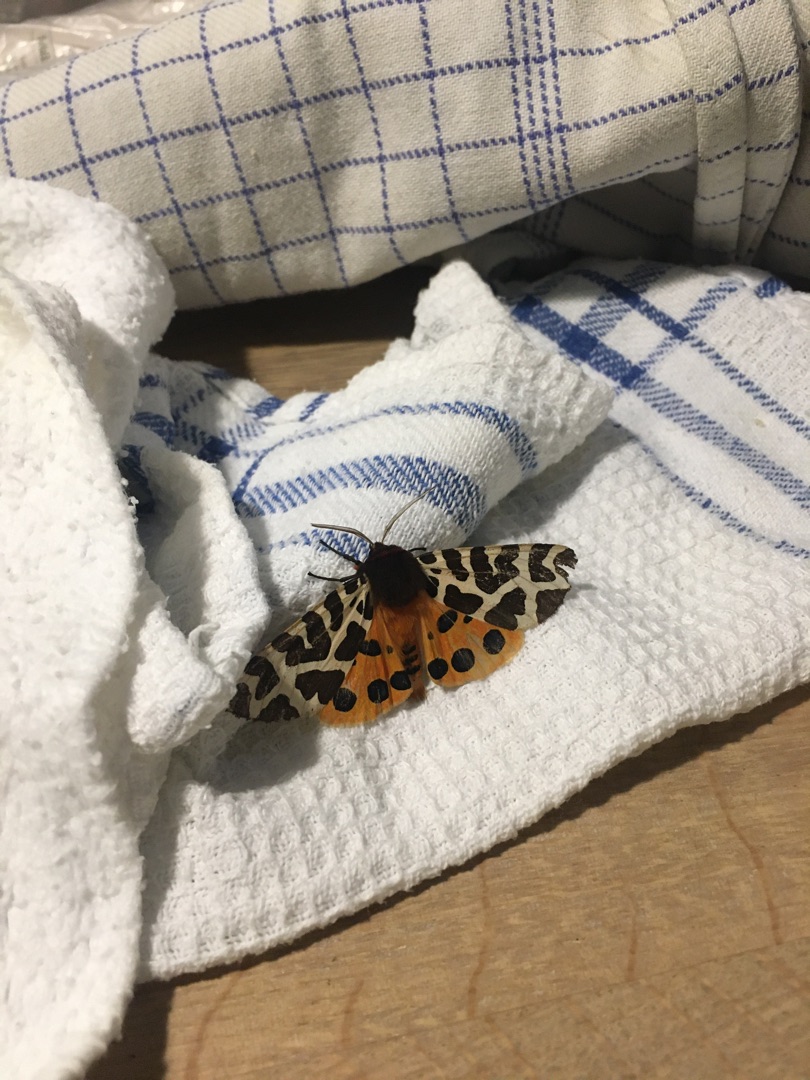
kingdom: Animalia
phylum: Arthropoda
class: Insecta
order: Lepidoptera
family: Erebidae
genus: Arctia
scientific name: Arctia caja
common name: Brun bjørn
